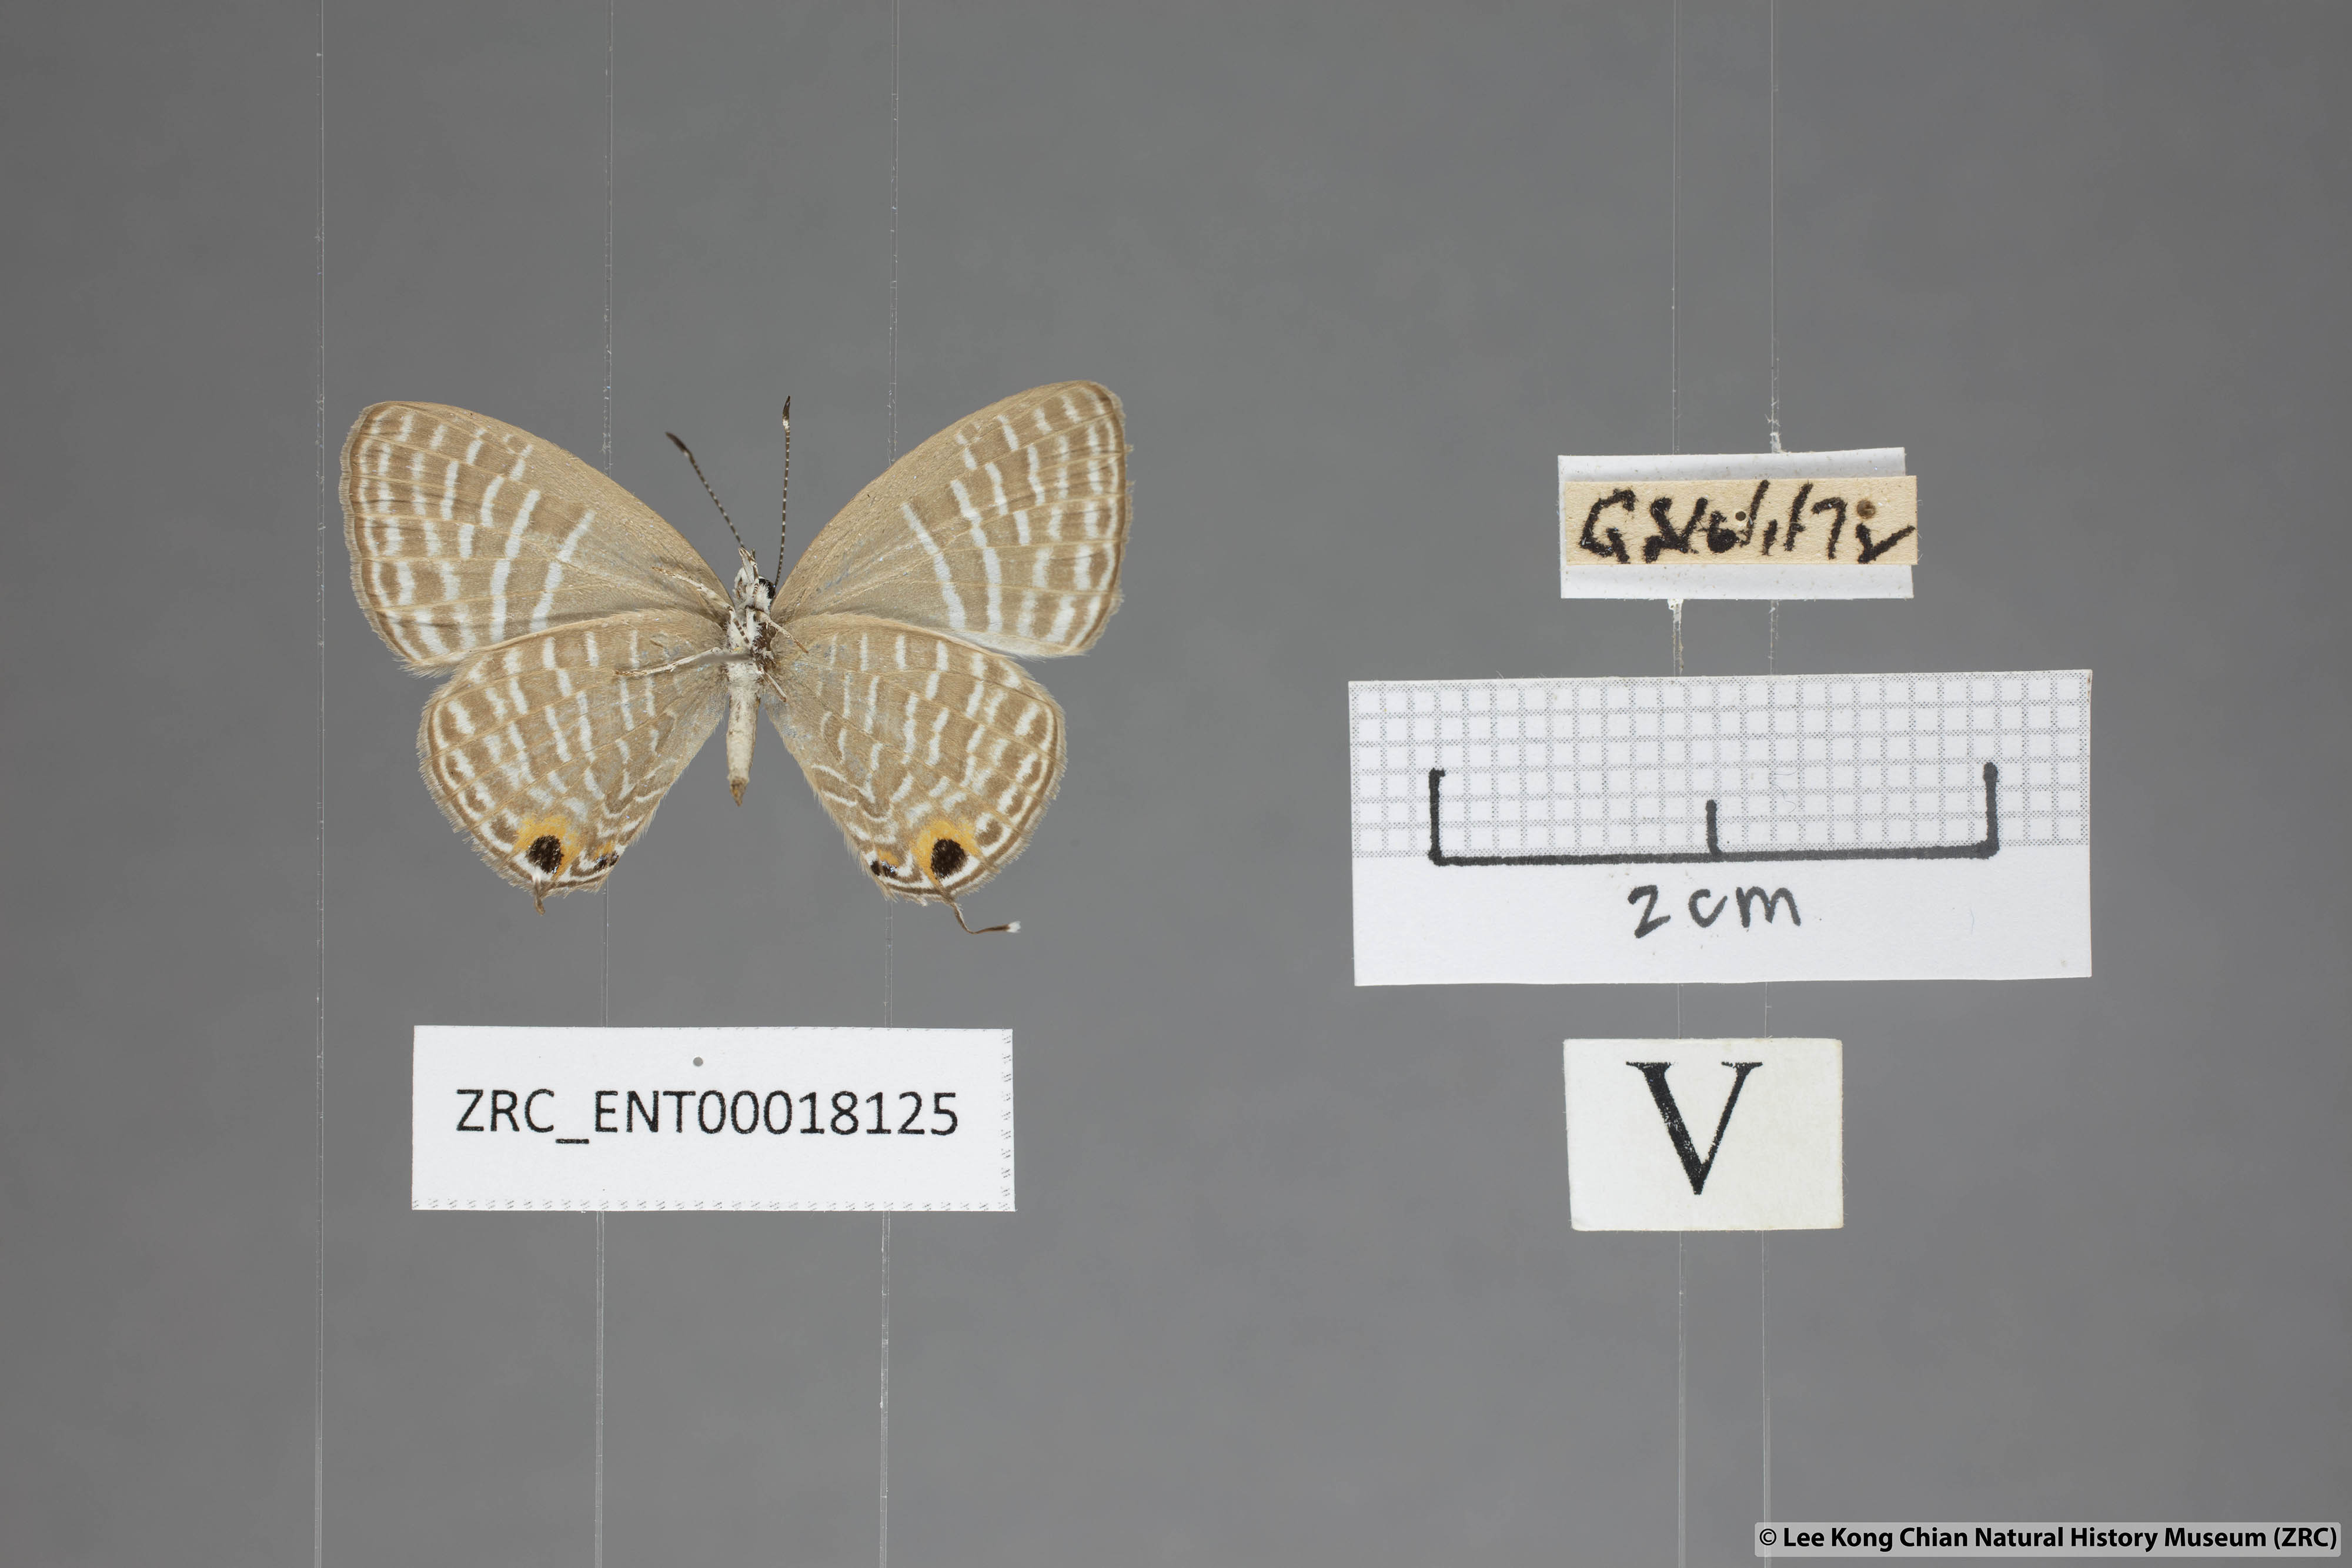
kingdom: Animalia
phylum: Arthropoda
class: Insecta
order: Lepidoptera
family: Lycaenidae
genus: Jamides
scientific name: Jamides elpis
